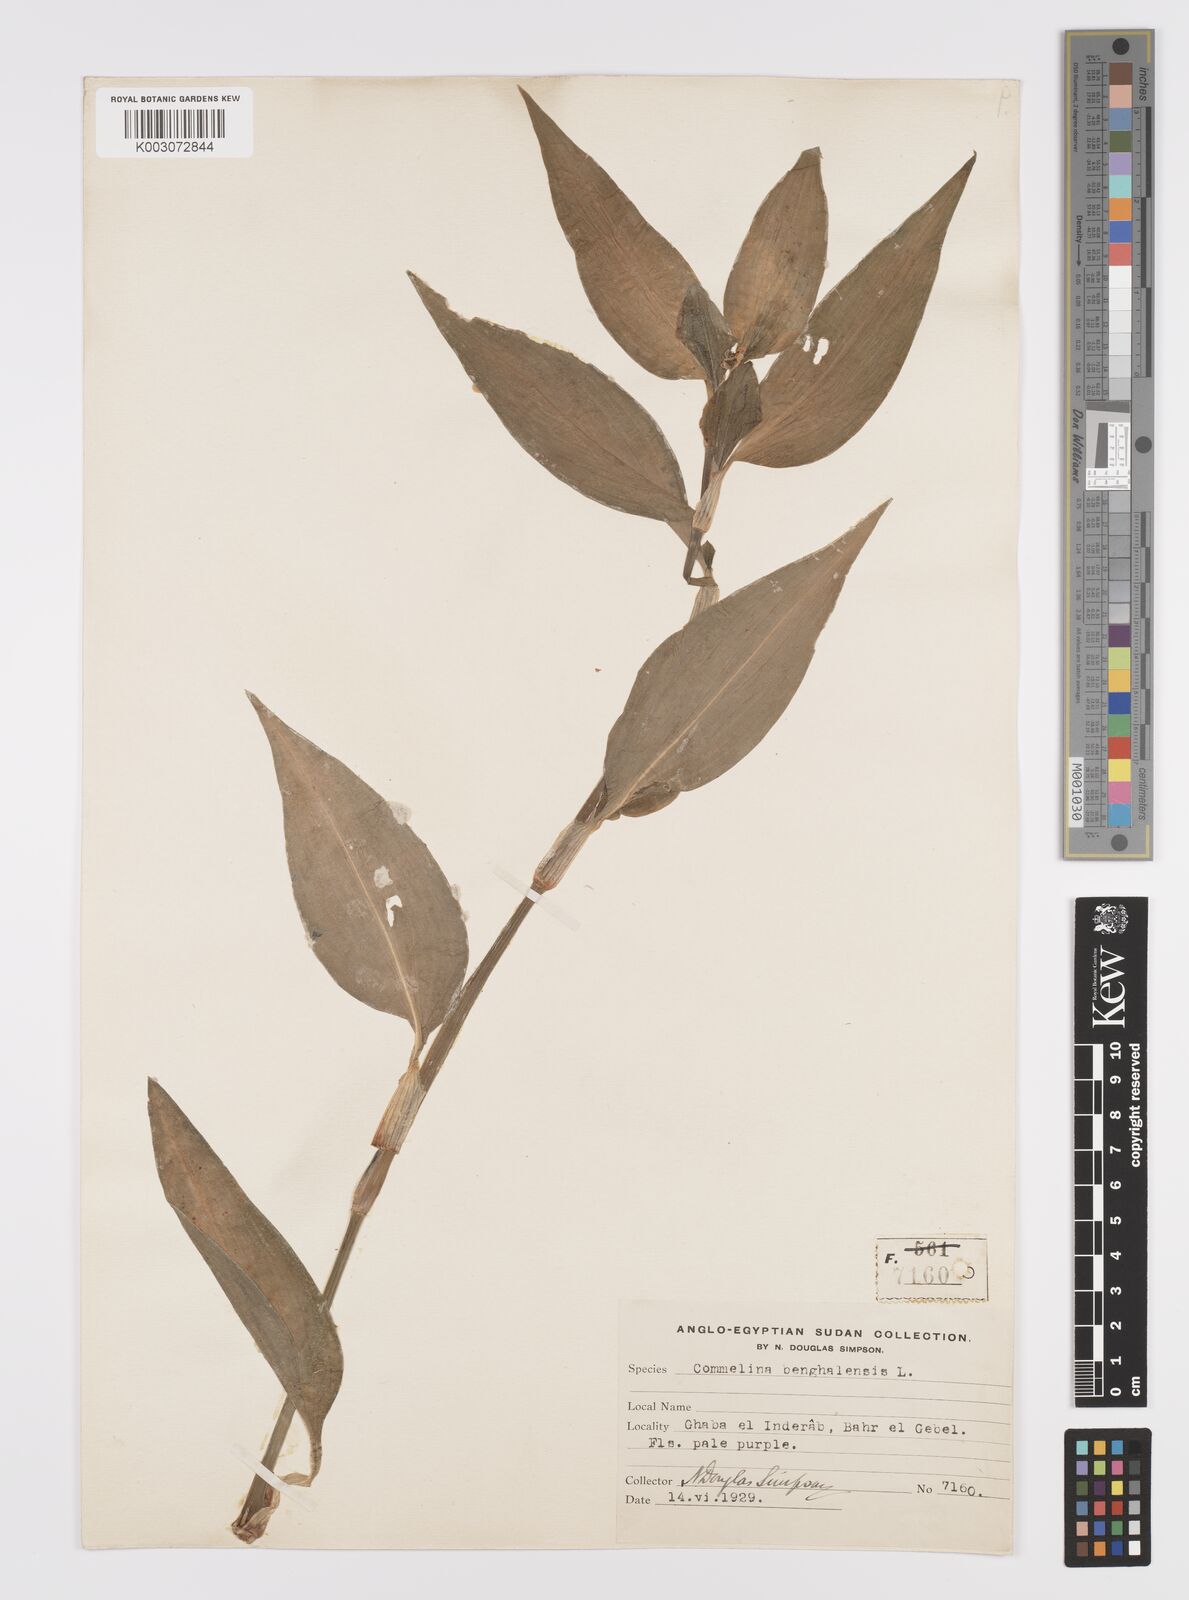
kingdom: Plantae
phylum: Tracheophyta
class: Liliopsida
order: Commelinales
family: Commelinaceae
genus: Commelina
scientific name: Commelina benghalensis
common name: Jio
